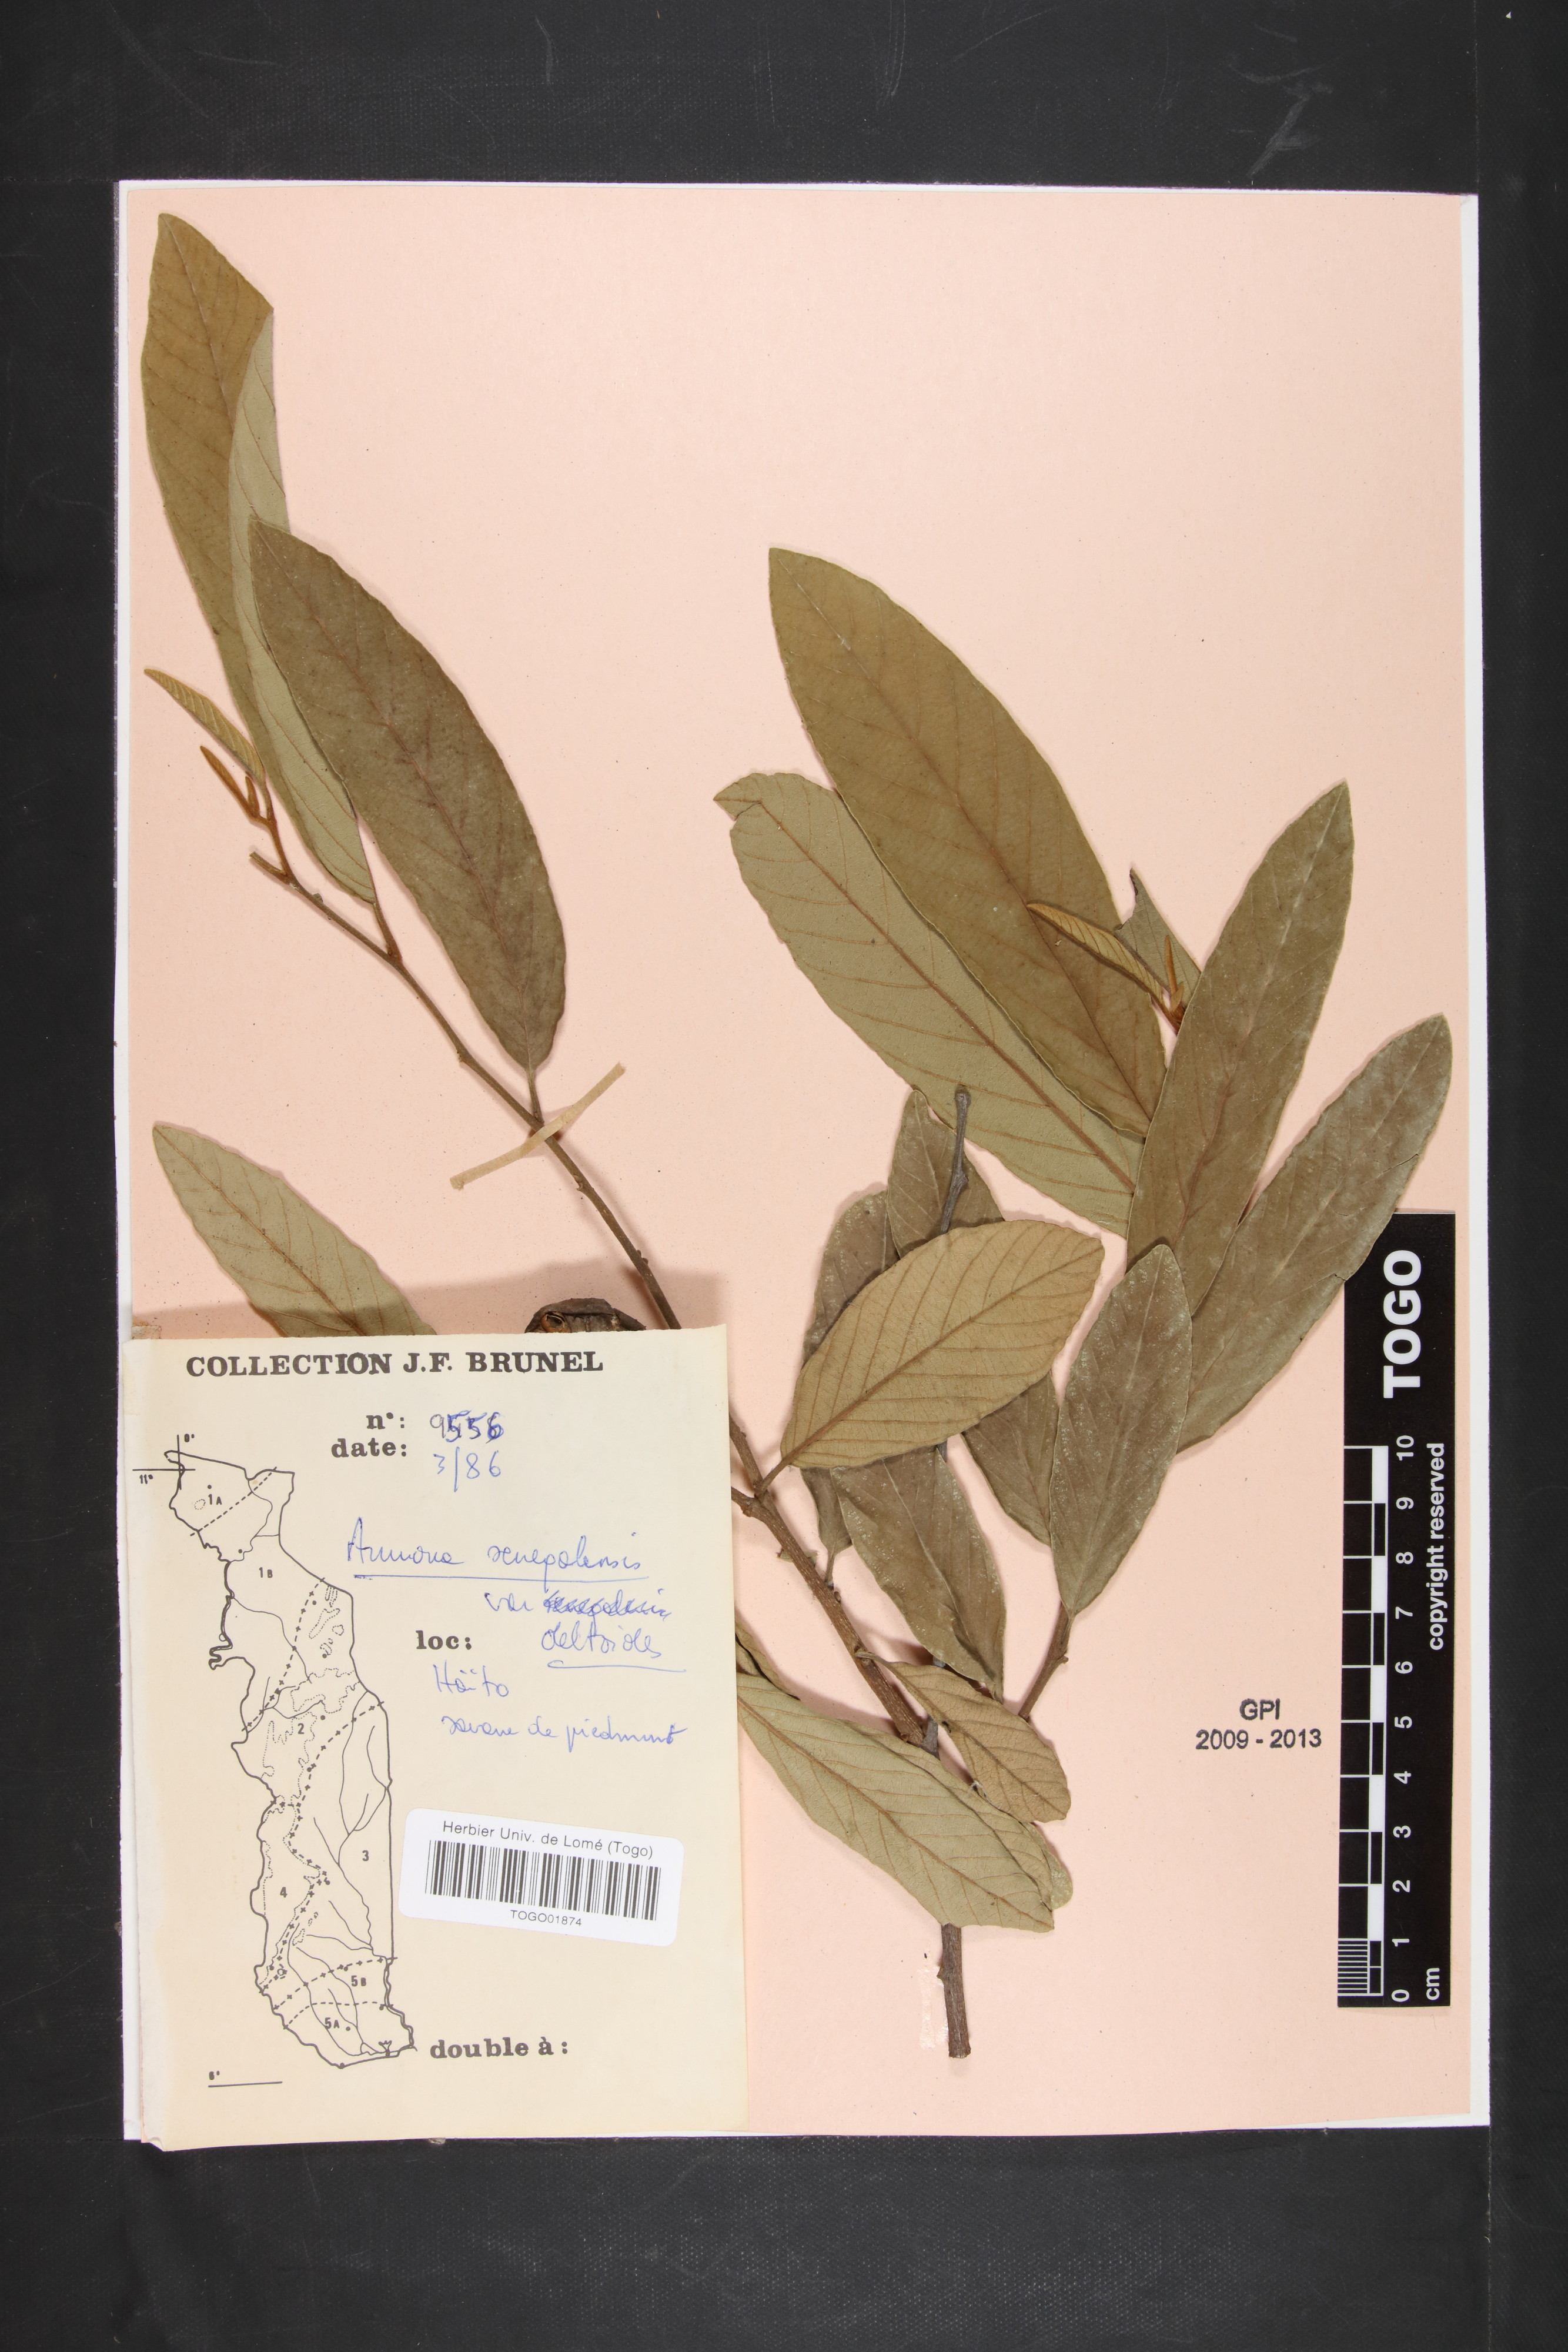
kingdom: Plantae
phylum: Tracheophyta
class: Magnoliopsida
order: Magnoliales
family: Annonaceae
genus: Annona
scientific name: Annona senegalensis
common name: Wild custard-apple
